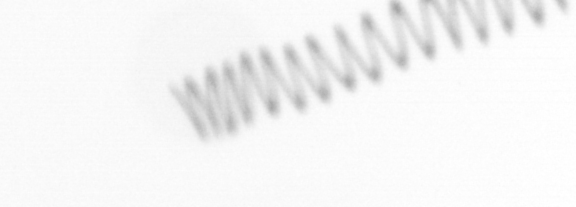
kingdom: Chromista
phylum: Ochrophyta
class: Bacillariophyceae
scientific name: Bacillariophyceae
